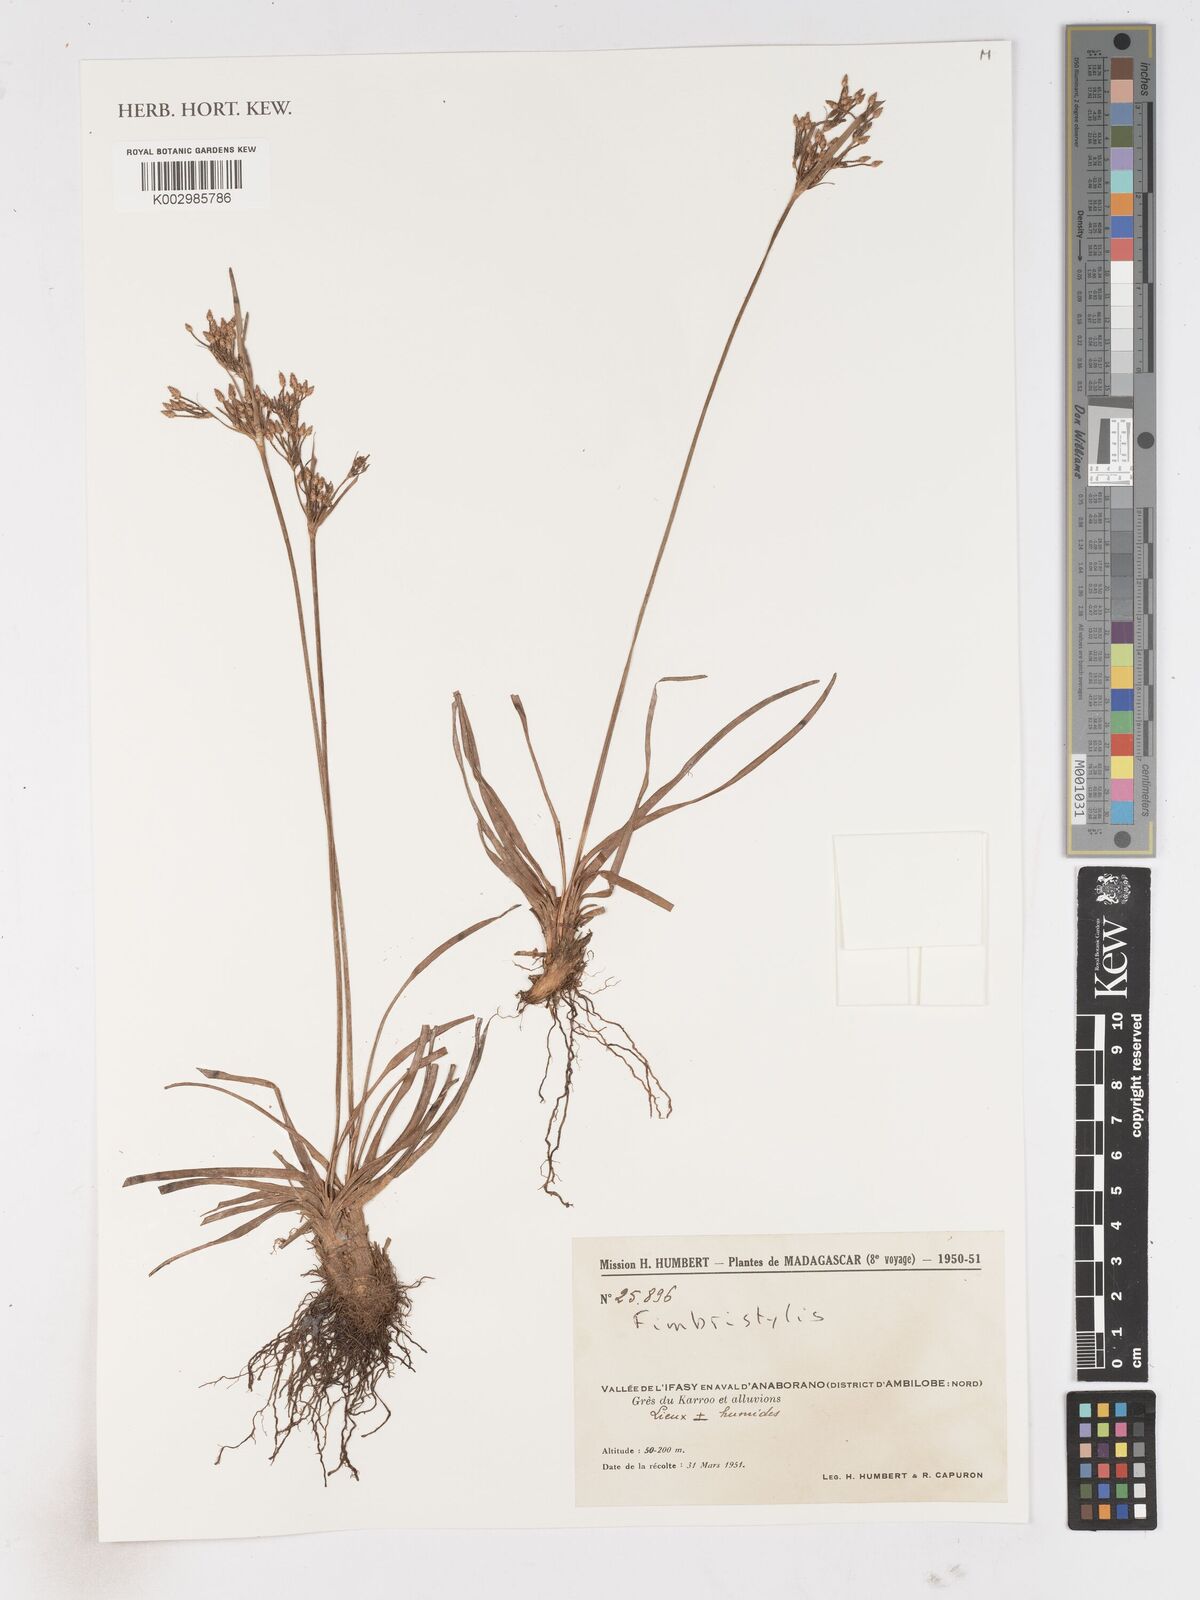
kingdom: Plantae
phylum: Tracheophyta
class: Liliopsida
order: Poales
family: Cyperaceae
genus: Fimbristylis
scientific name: Fimbristylis
